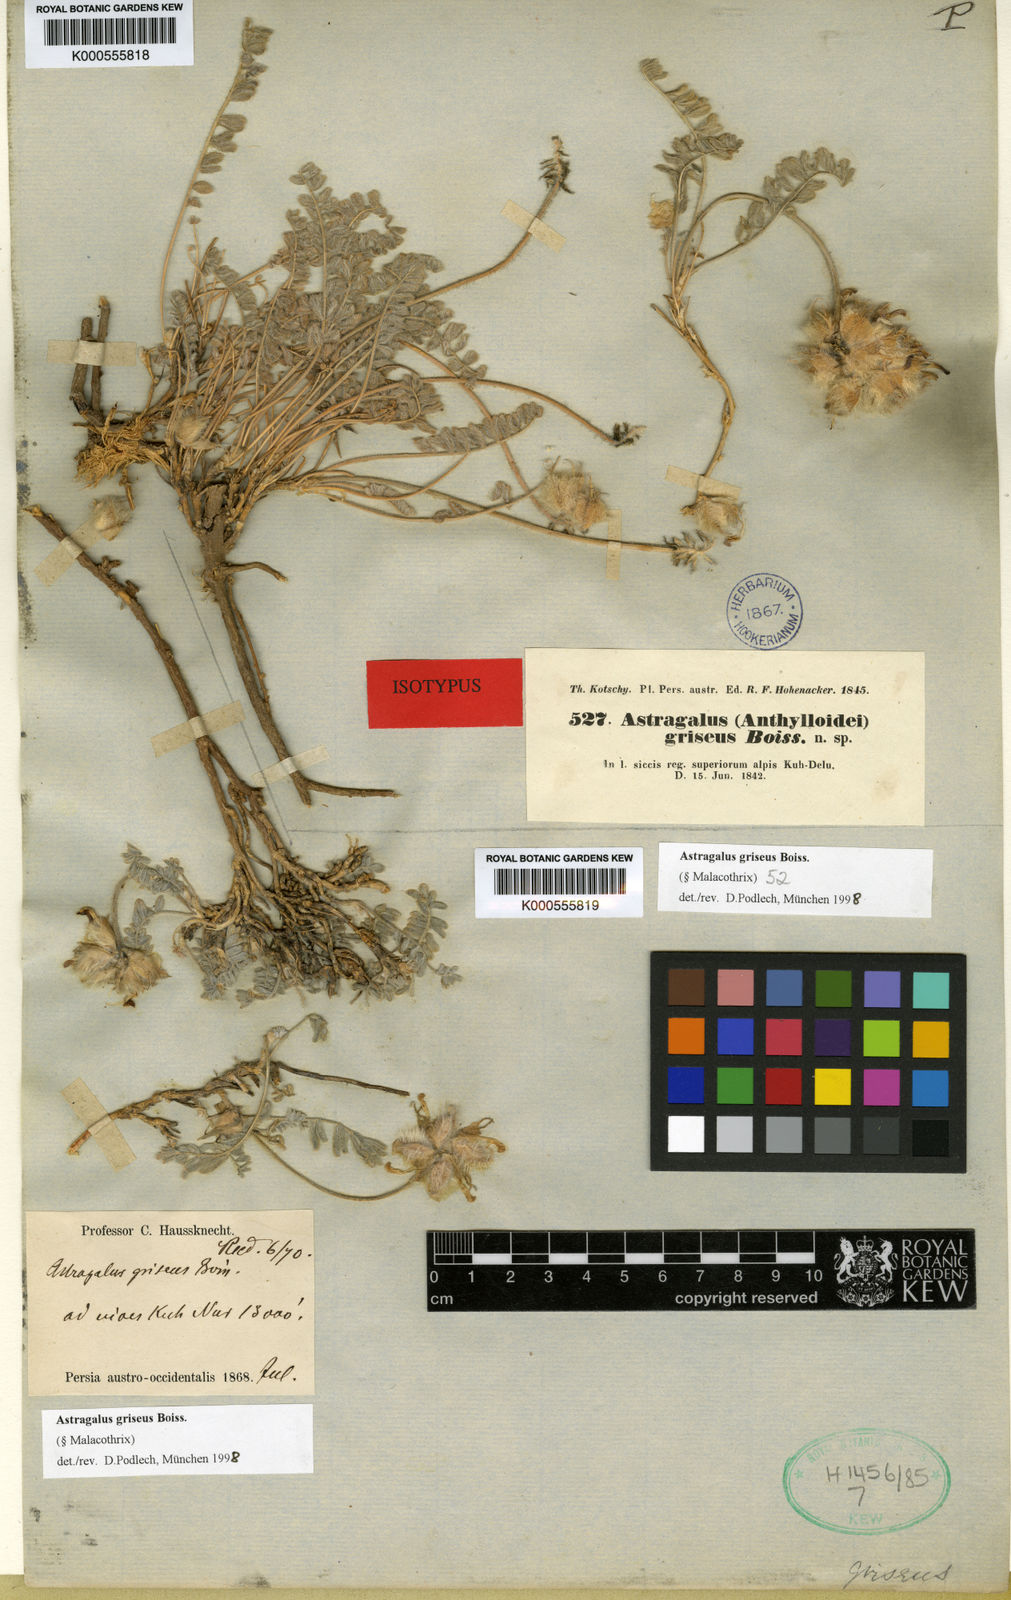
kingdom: Plantae
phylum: Tracheophyta
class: Magnoliopsida
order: Fabales
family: Fabaceae
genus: Astragalus
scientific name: Astragalus griseus
